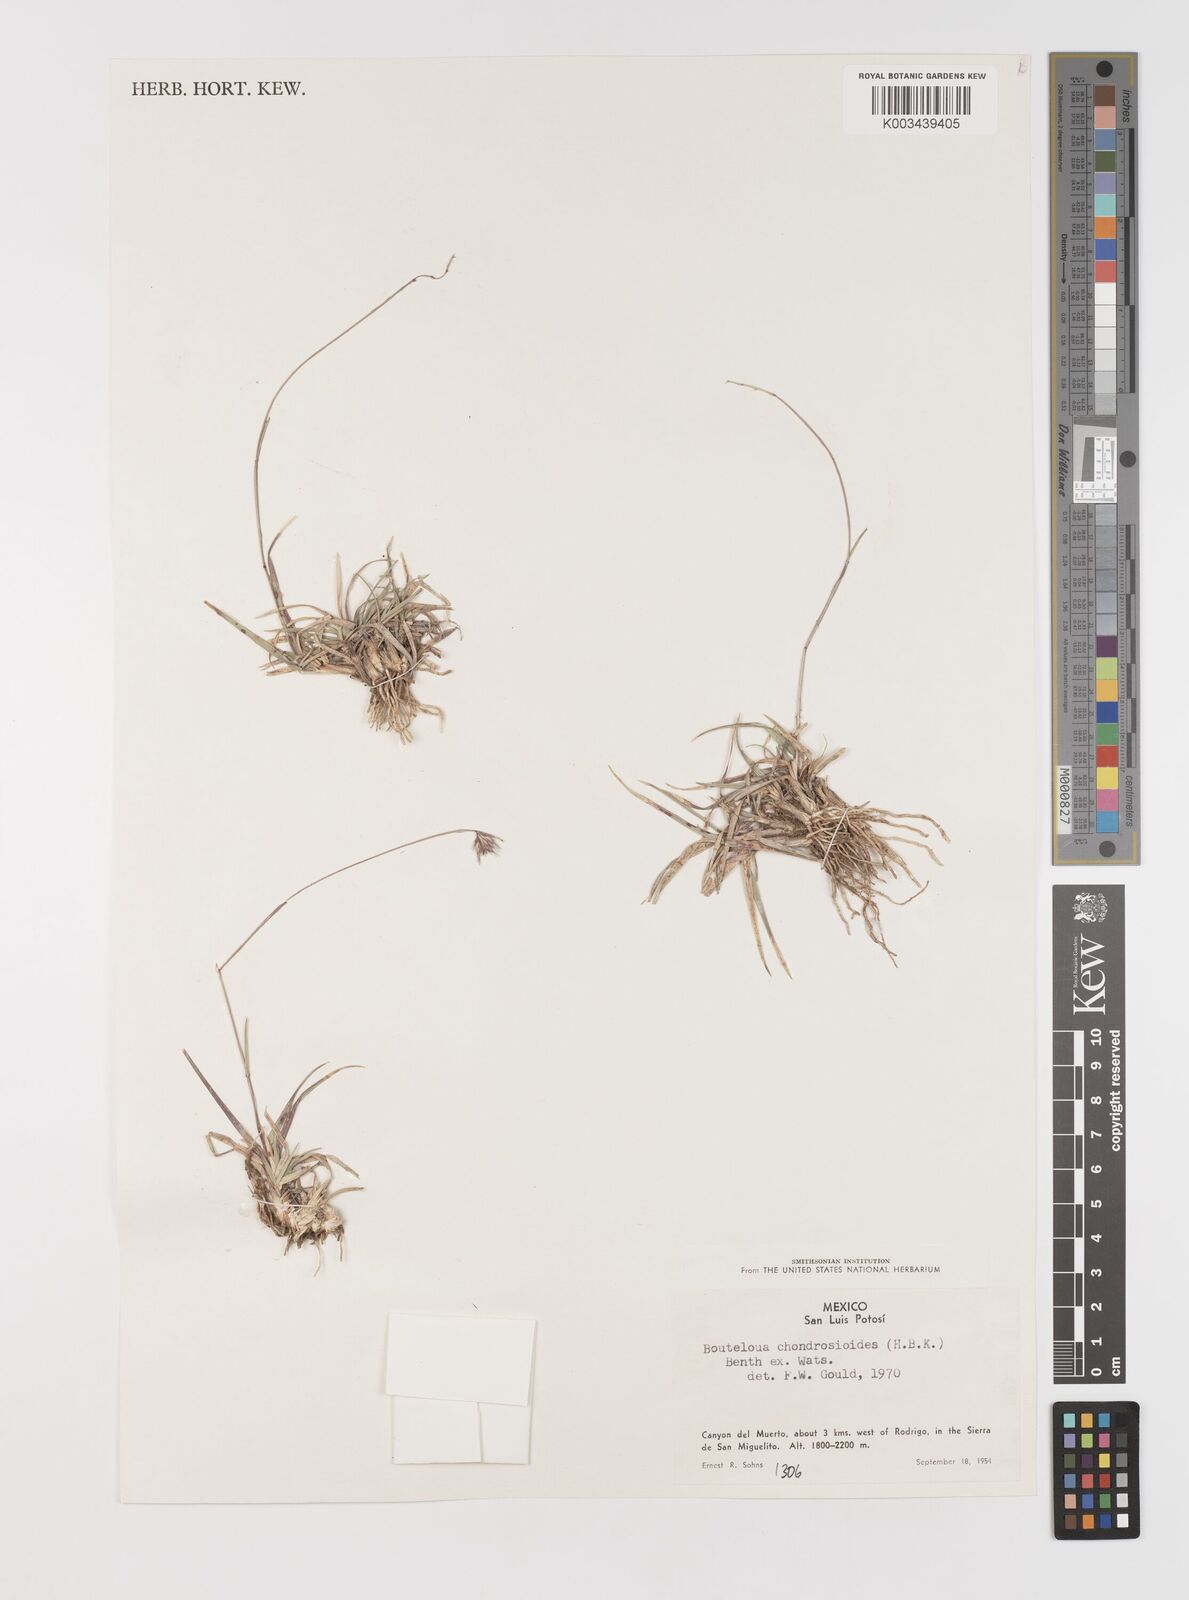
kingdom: Plantae
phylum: Tracheophyta
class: Liliopsida
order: Poales
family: Poaceae
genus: Bouteloua
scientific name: Bouteloua chondrosioides
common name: Sprucetop grama
